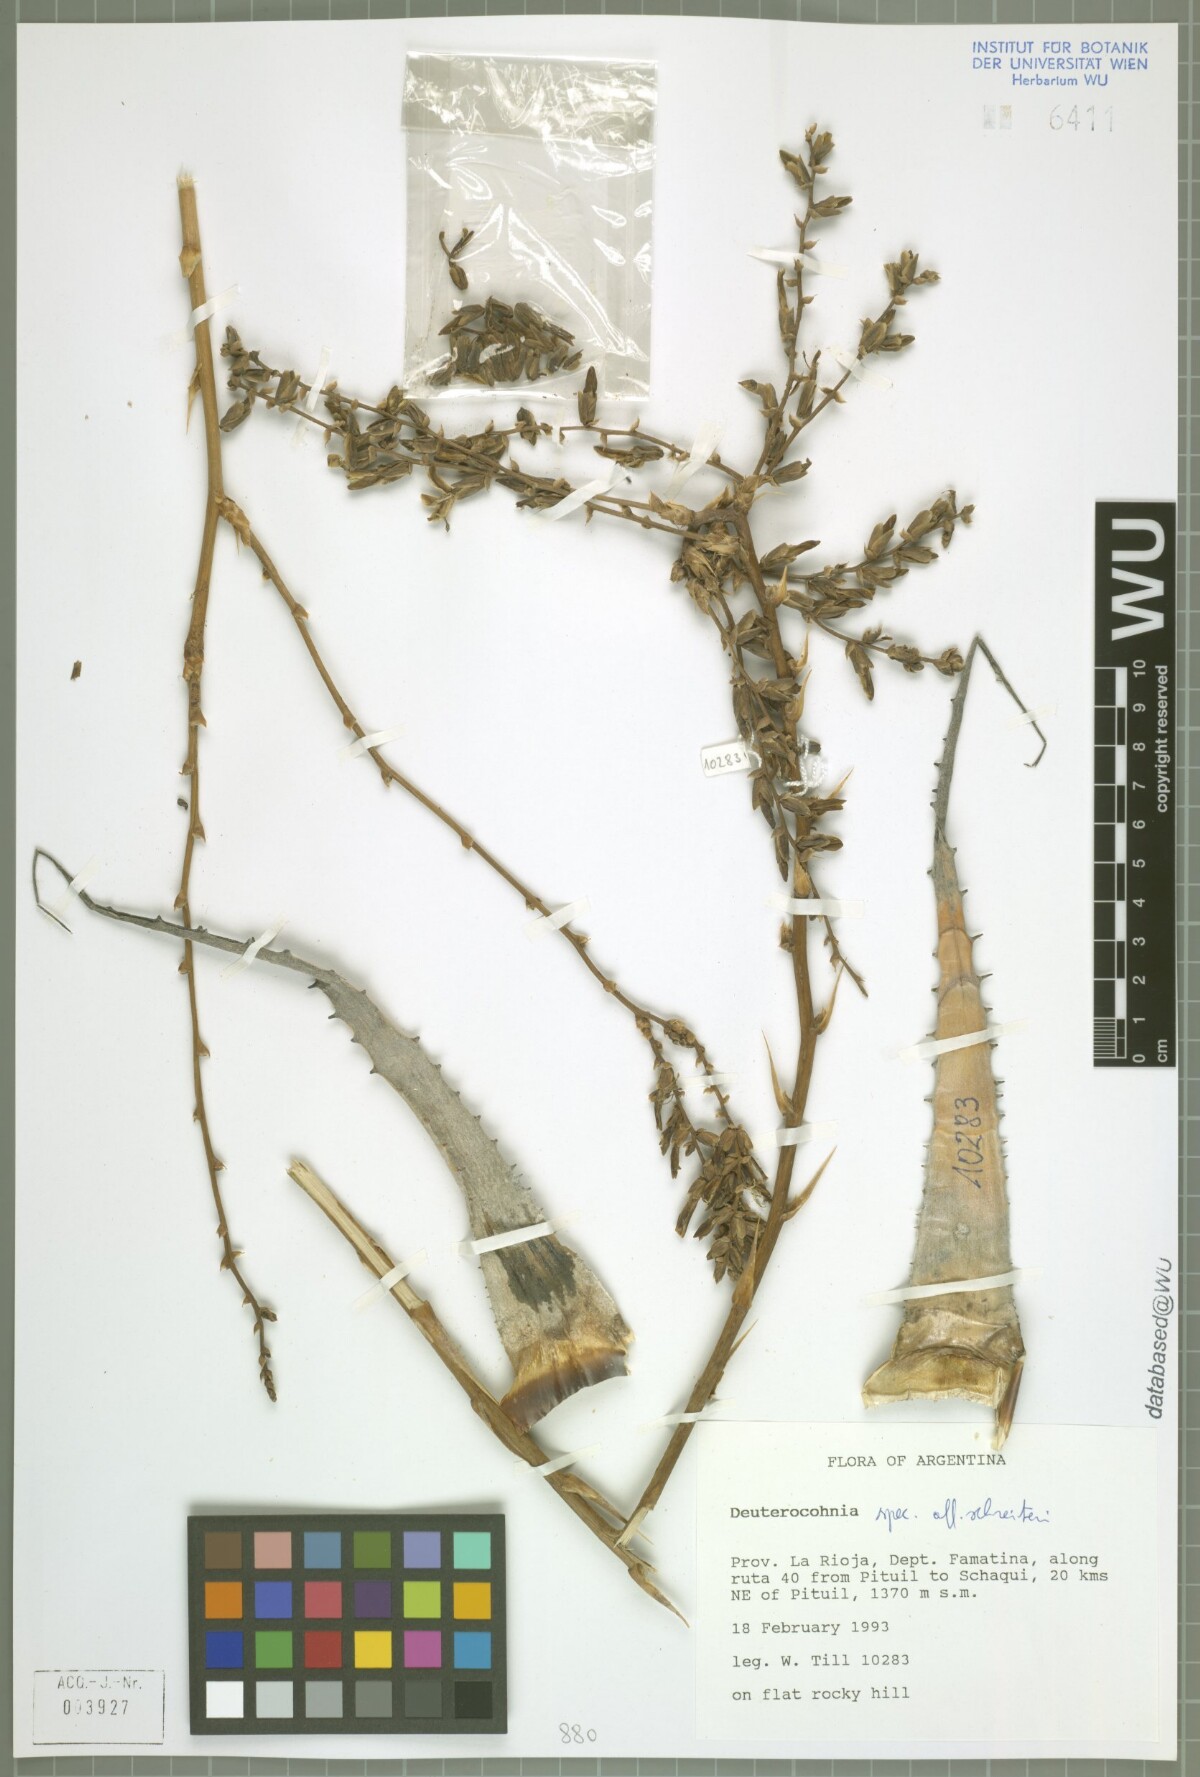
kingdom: Plantae
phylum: Tracheophyta
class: Liliopsida
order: Poales
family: Bromeliaceae
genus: Deuterocohnia
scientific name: Deuterocohnia
